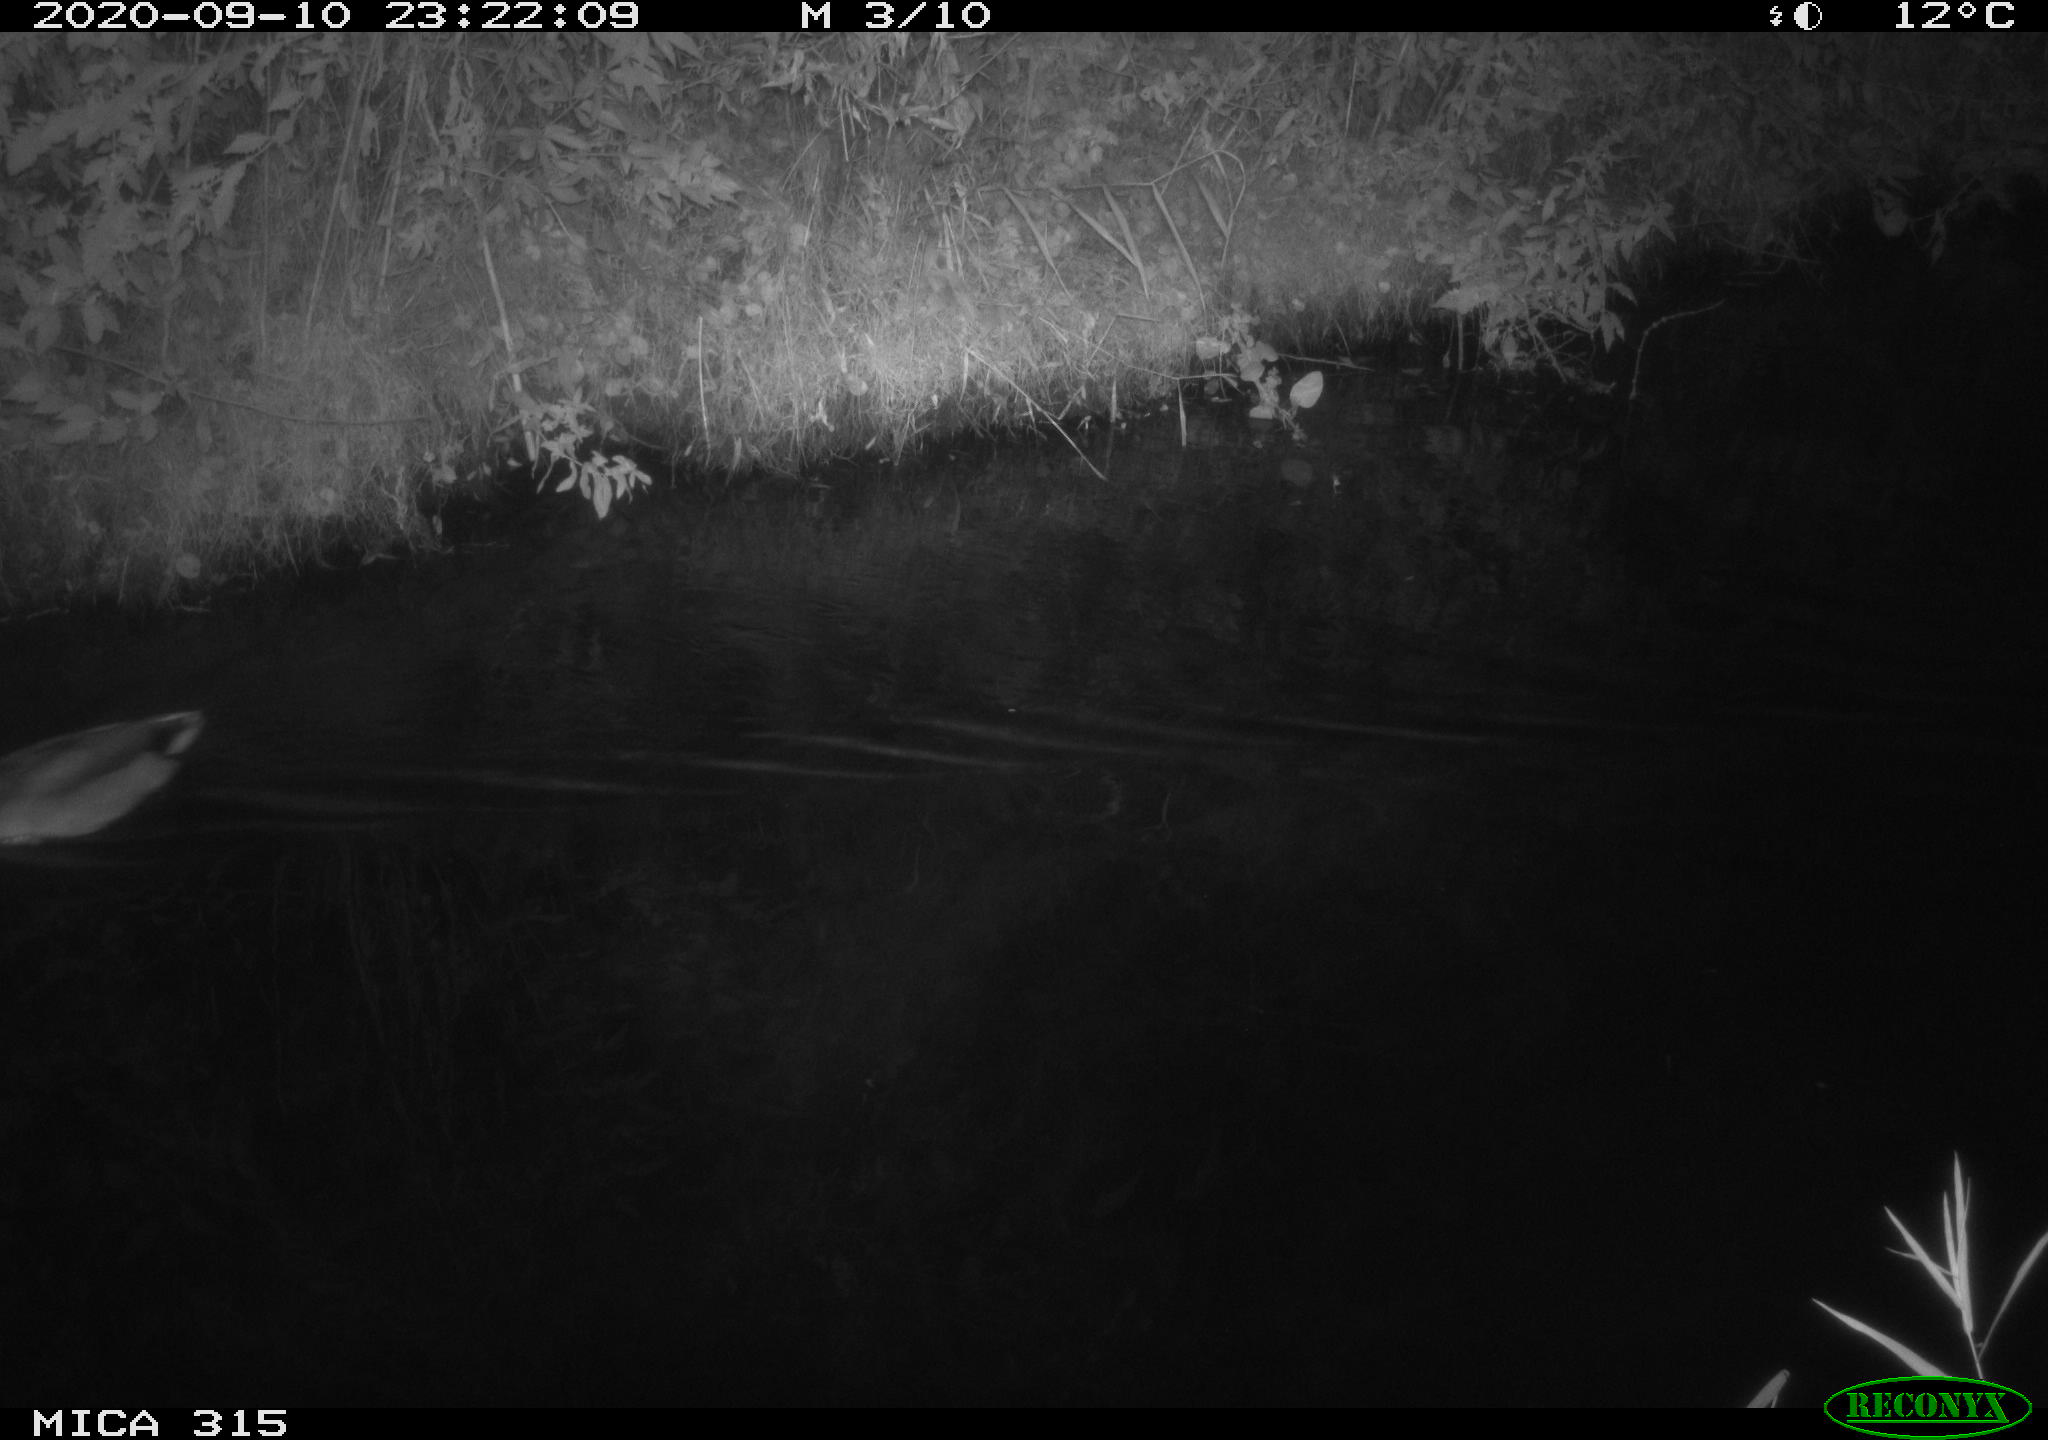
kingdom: Animalia
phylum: Chordata
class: Aves
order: Anseriformes
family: Anatidae
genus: Anas
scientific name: Anas platyrhynchos
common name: Mallard
